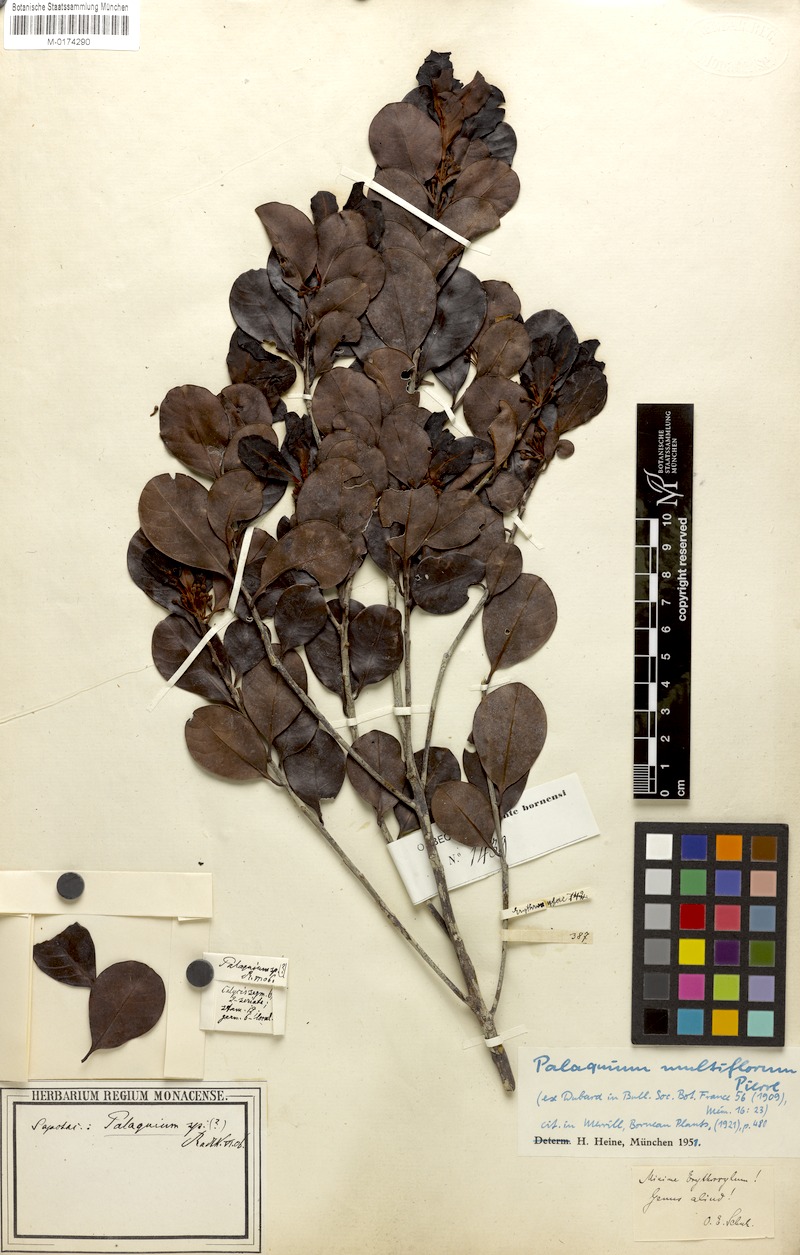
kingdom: Plantae
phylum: Tracheophyta
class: Magnoliopsida
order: Ericales
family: Sapotaceae
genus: Palaquium
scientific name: Palaquium multiflorum
